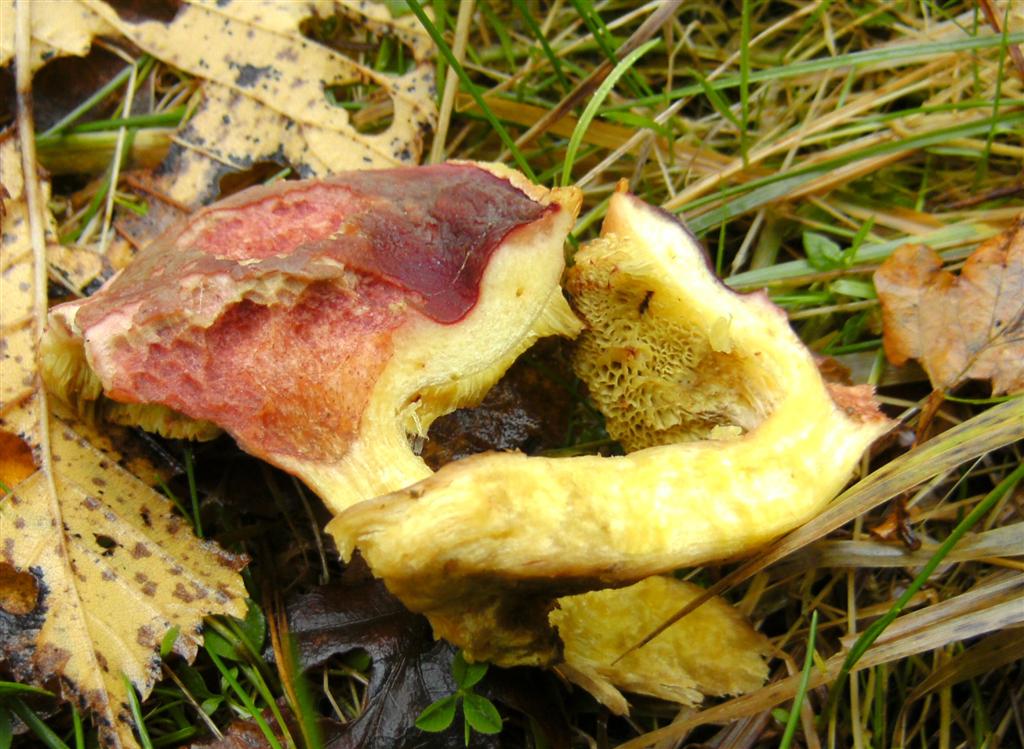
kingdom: Fungi
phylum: Basidiomycota
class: Agaricomycetes
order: Boletales
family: Boletaceae
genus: Hortiboletus
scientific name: Hortiboletus rubellus
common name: blodrød rørhat
